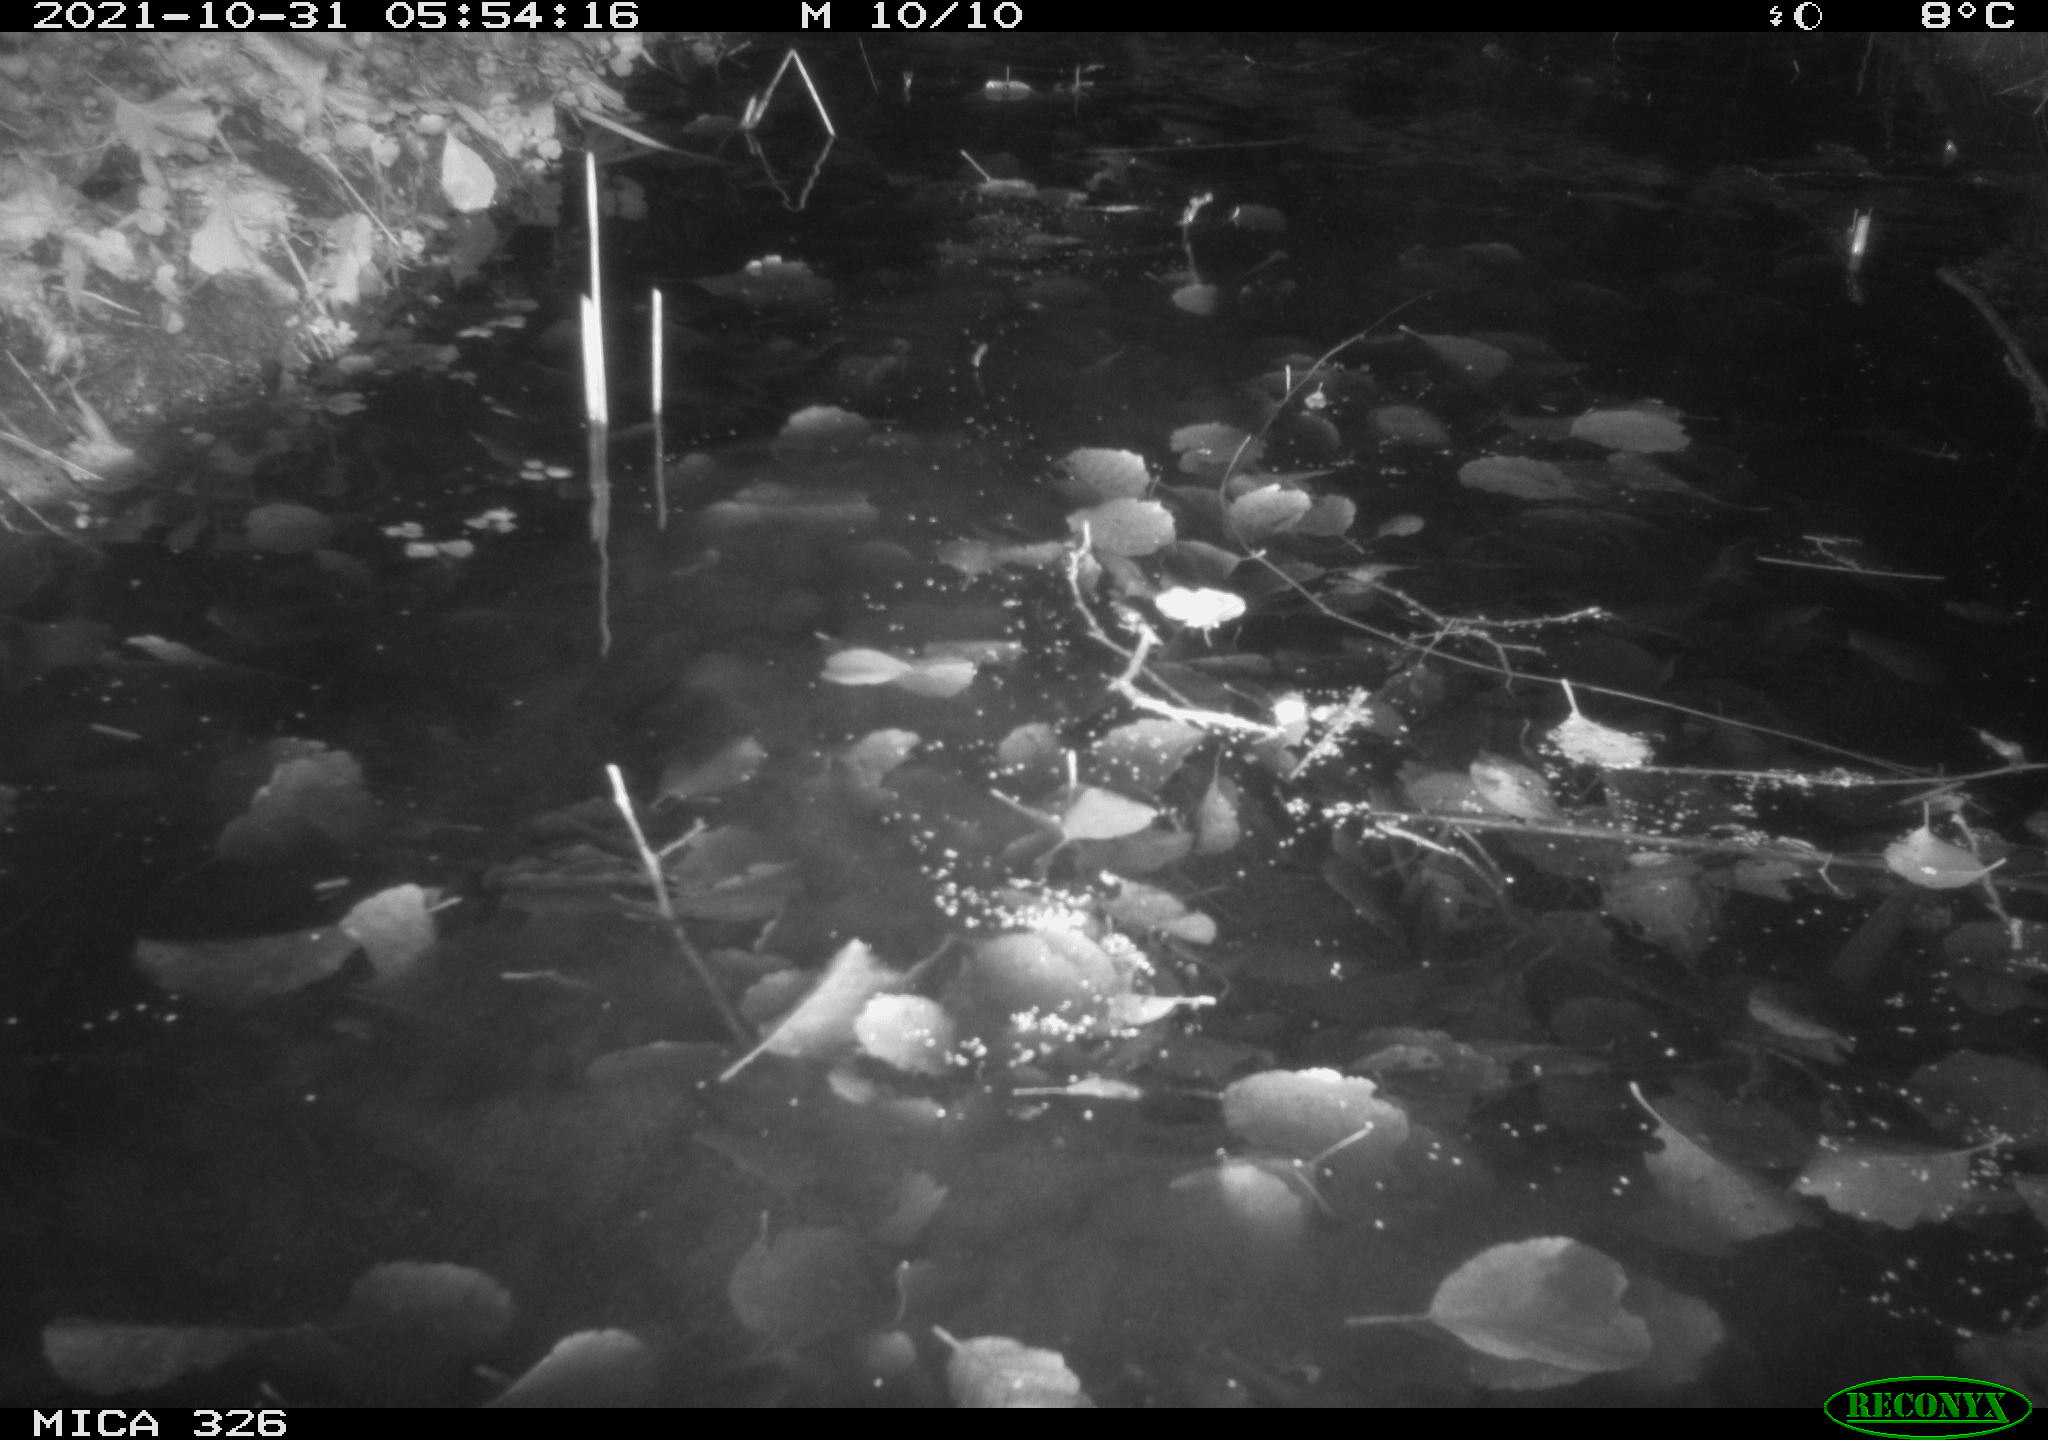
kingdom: Animalia
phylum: Chordata
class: Mammalia
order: Rodentia
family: Myocastoridae
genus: Myocastor
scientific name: Myocastor coypus
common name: Coypu
